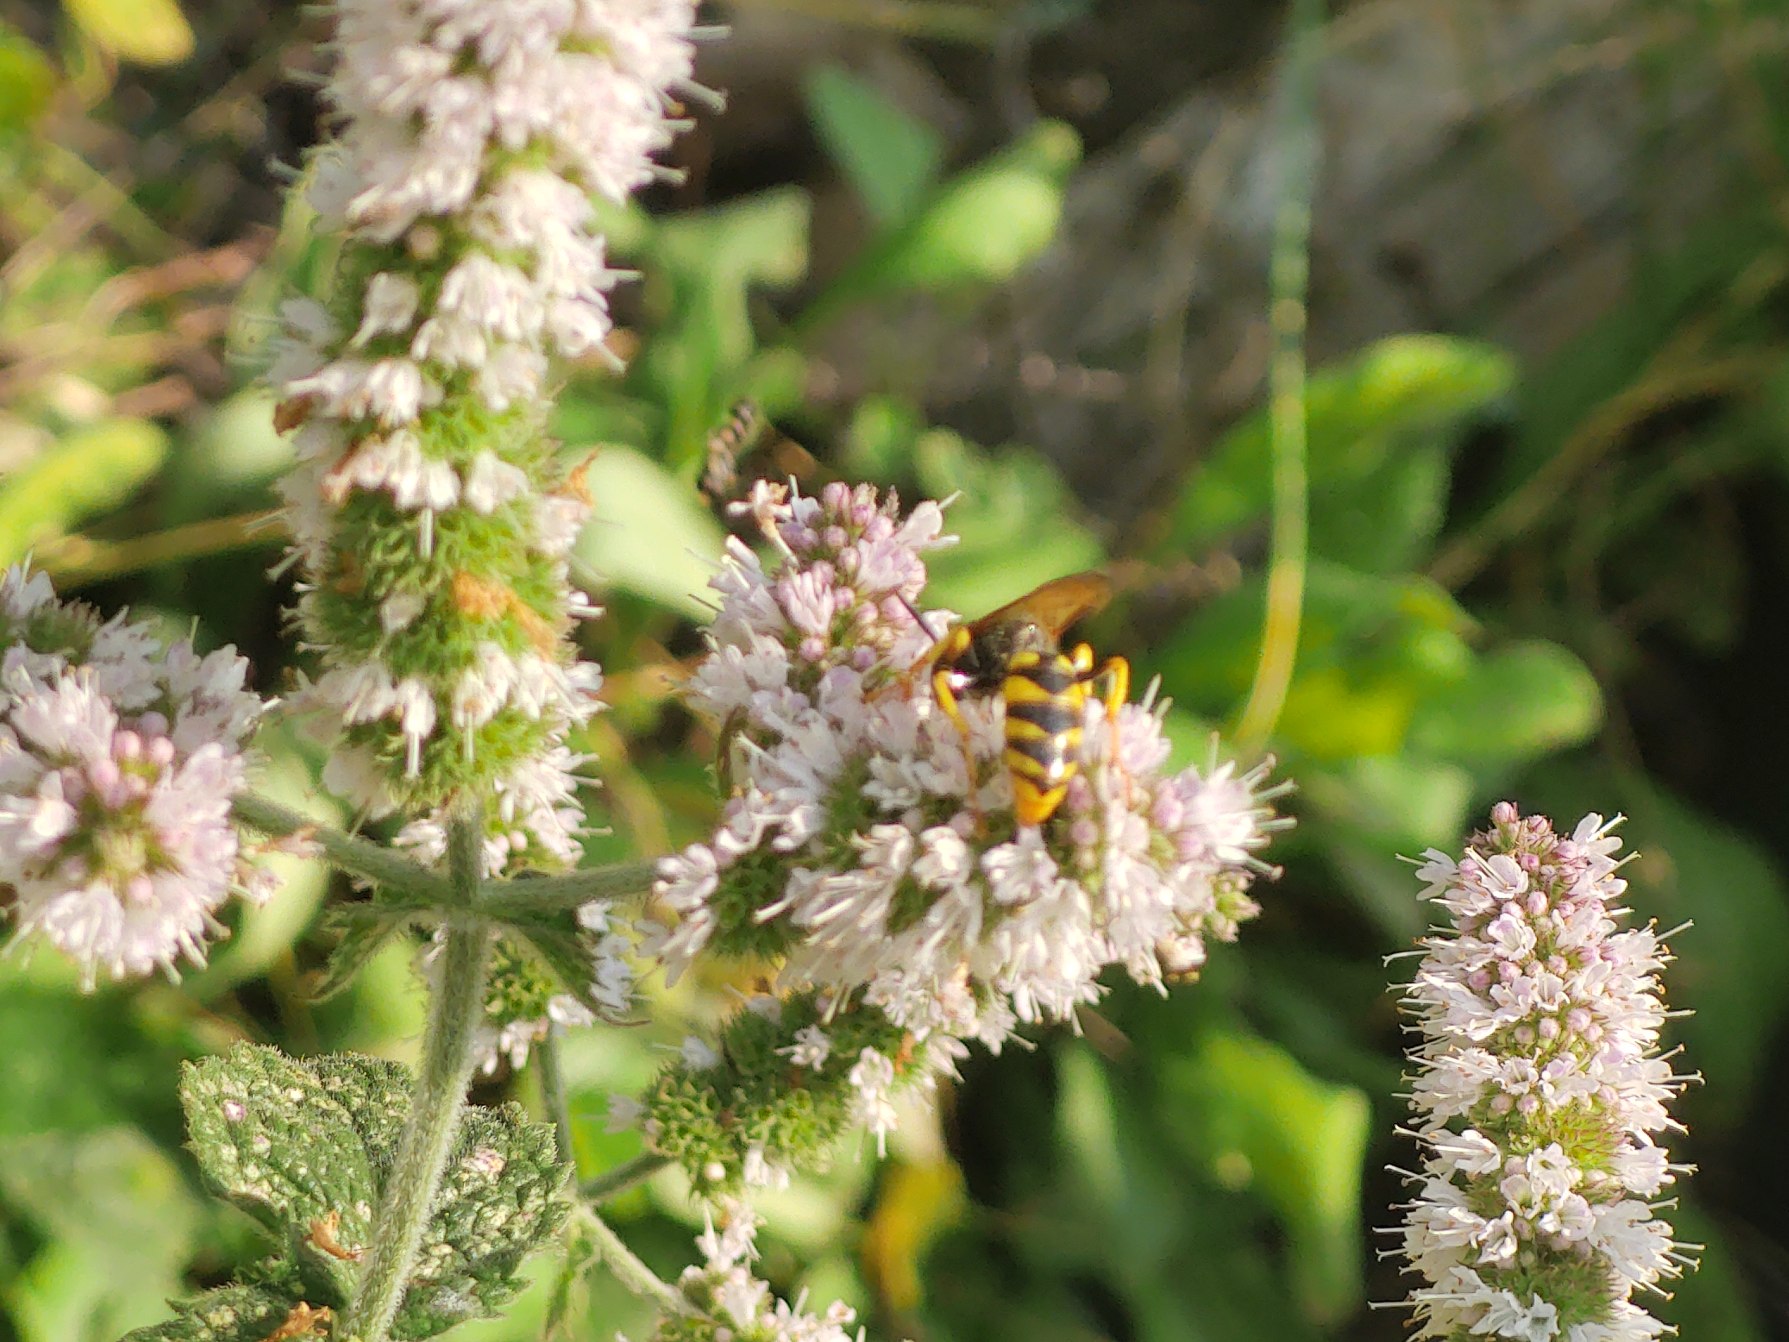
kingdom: Animalia
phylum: Arthropoda
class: Insecta
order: Hymenoptera
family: Crabronidae
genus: Philanthus
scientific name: Philanthus triangulum
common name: Biulv
